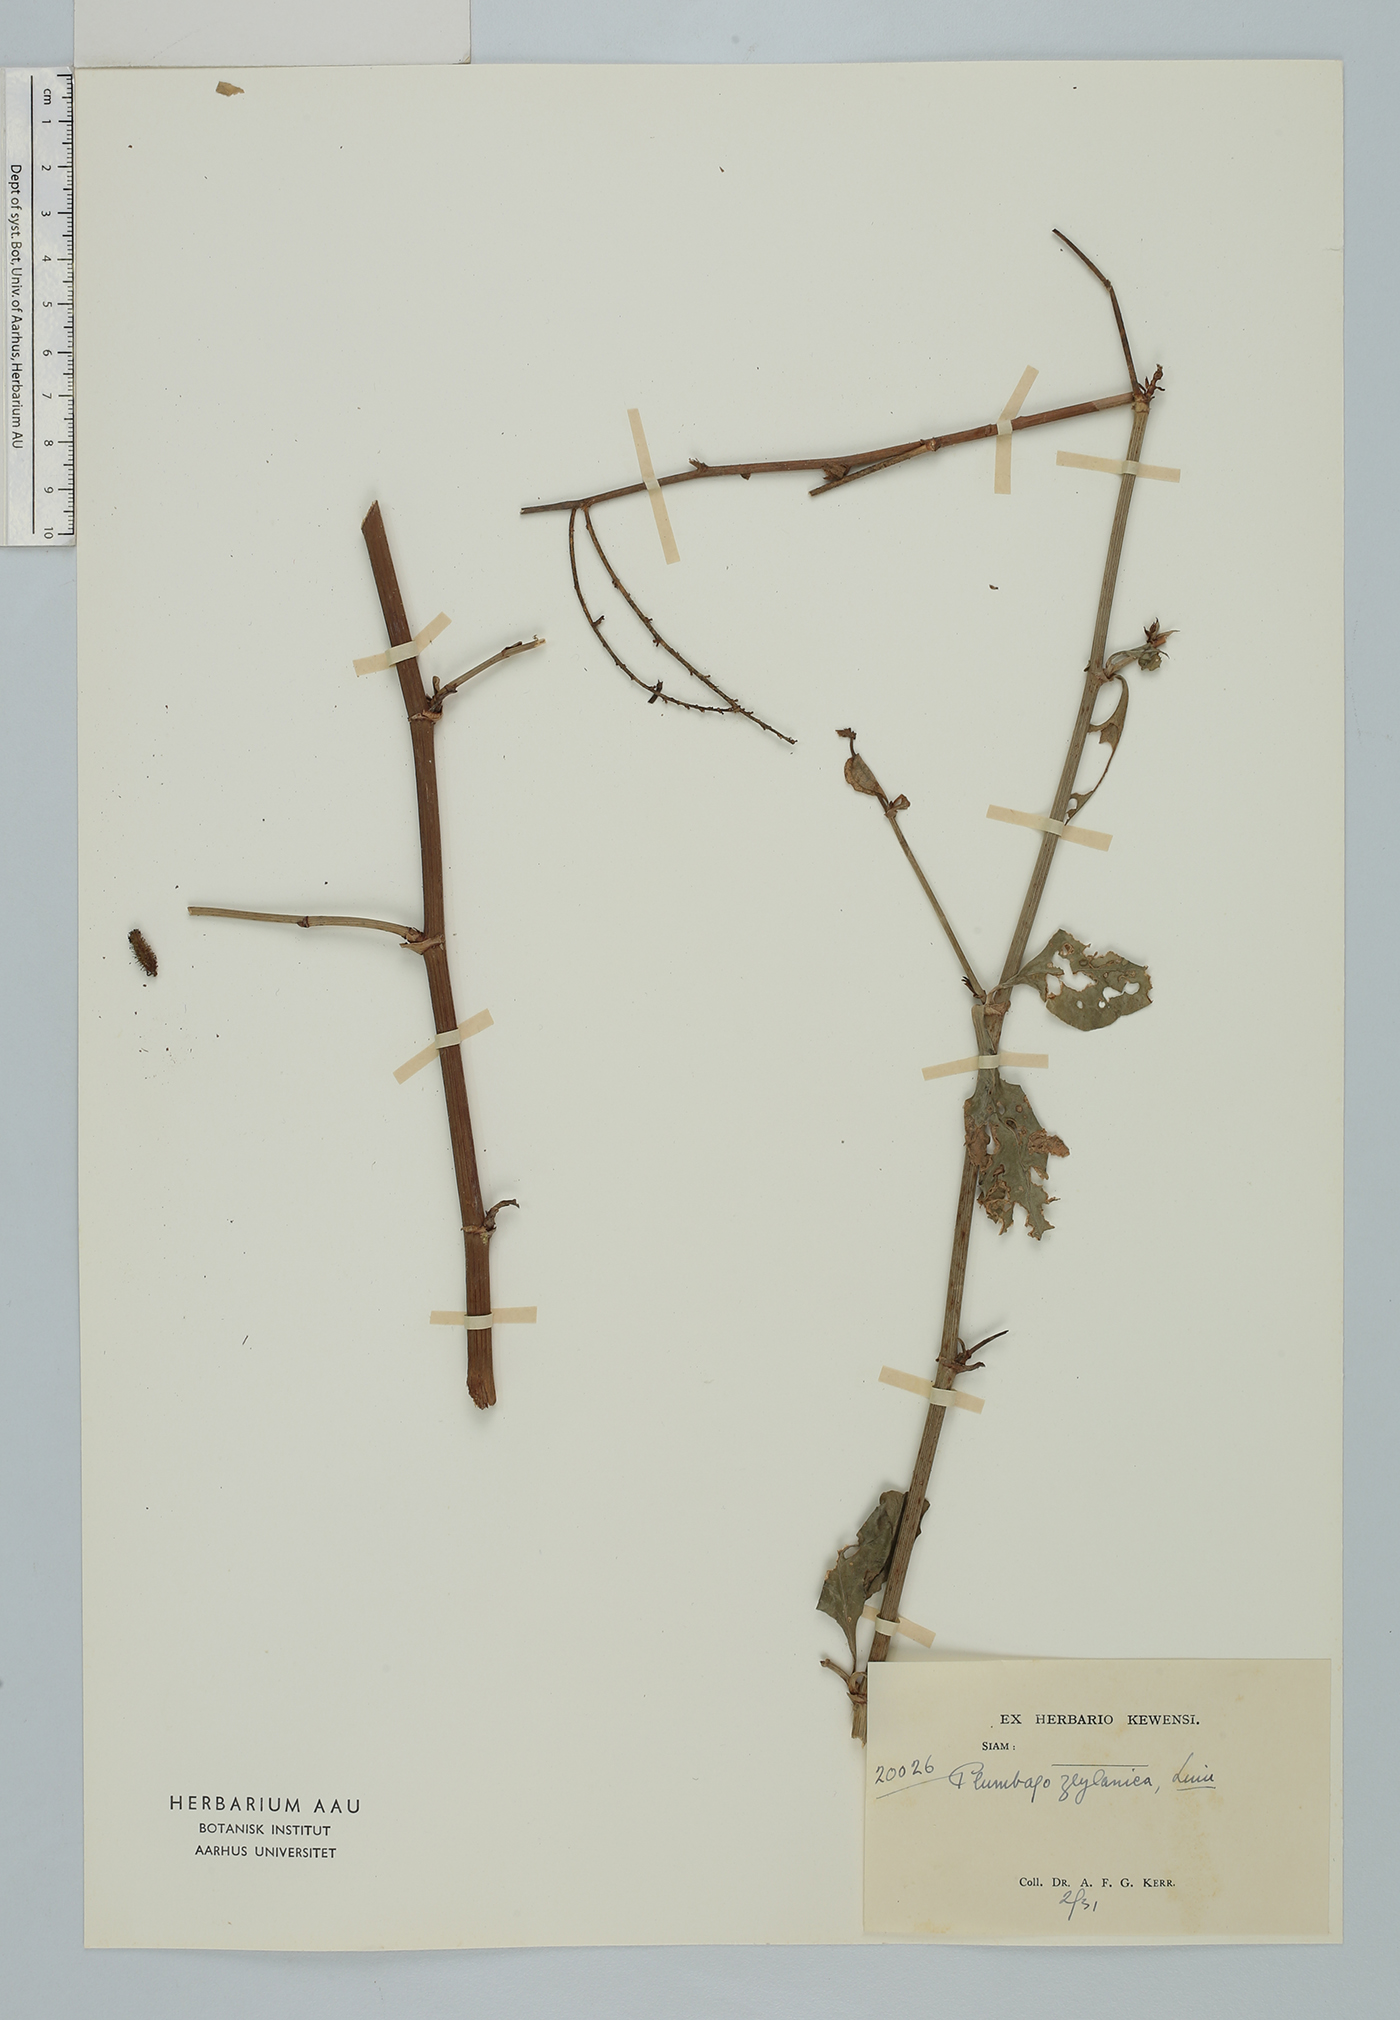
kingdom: Plantae
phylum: Tracheophyta
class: Magnoliopsida
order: Caryophyllales
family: Plumbaginaceae
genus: Plumbago
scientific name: Plumbago zeylanica
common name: Doctorbush
